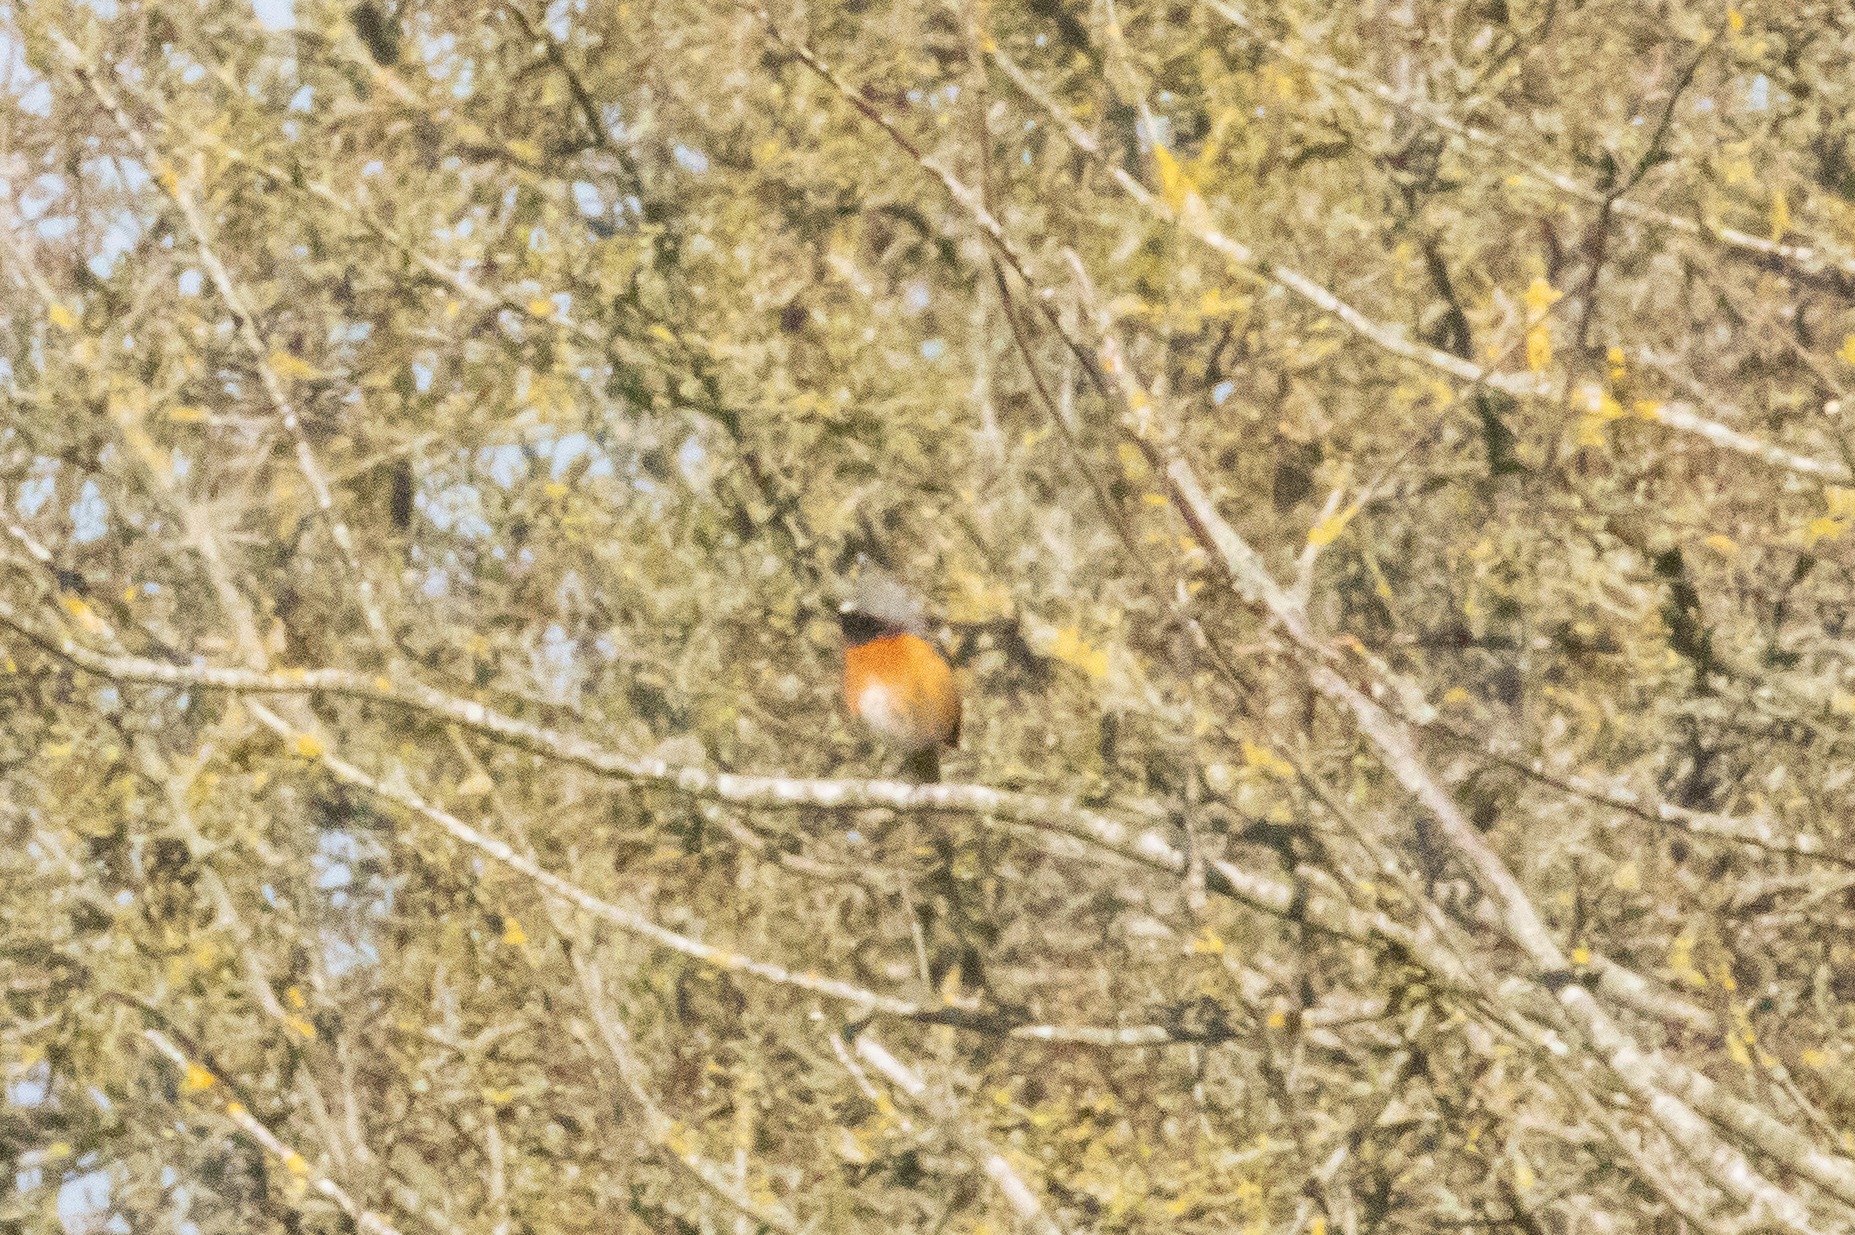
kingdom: Animalia
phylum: Chordata
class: Aves
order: Passeriformes
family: Muscicapidae
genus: Phoenicurus
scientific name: Phoenicurus phoenicurus
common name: Rødstjert
